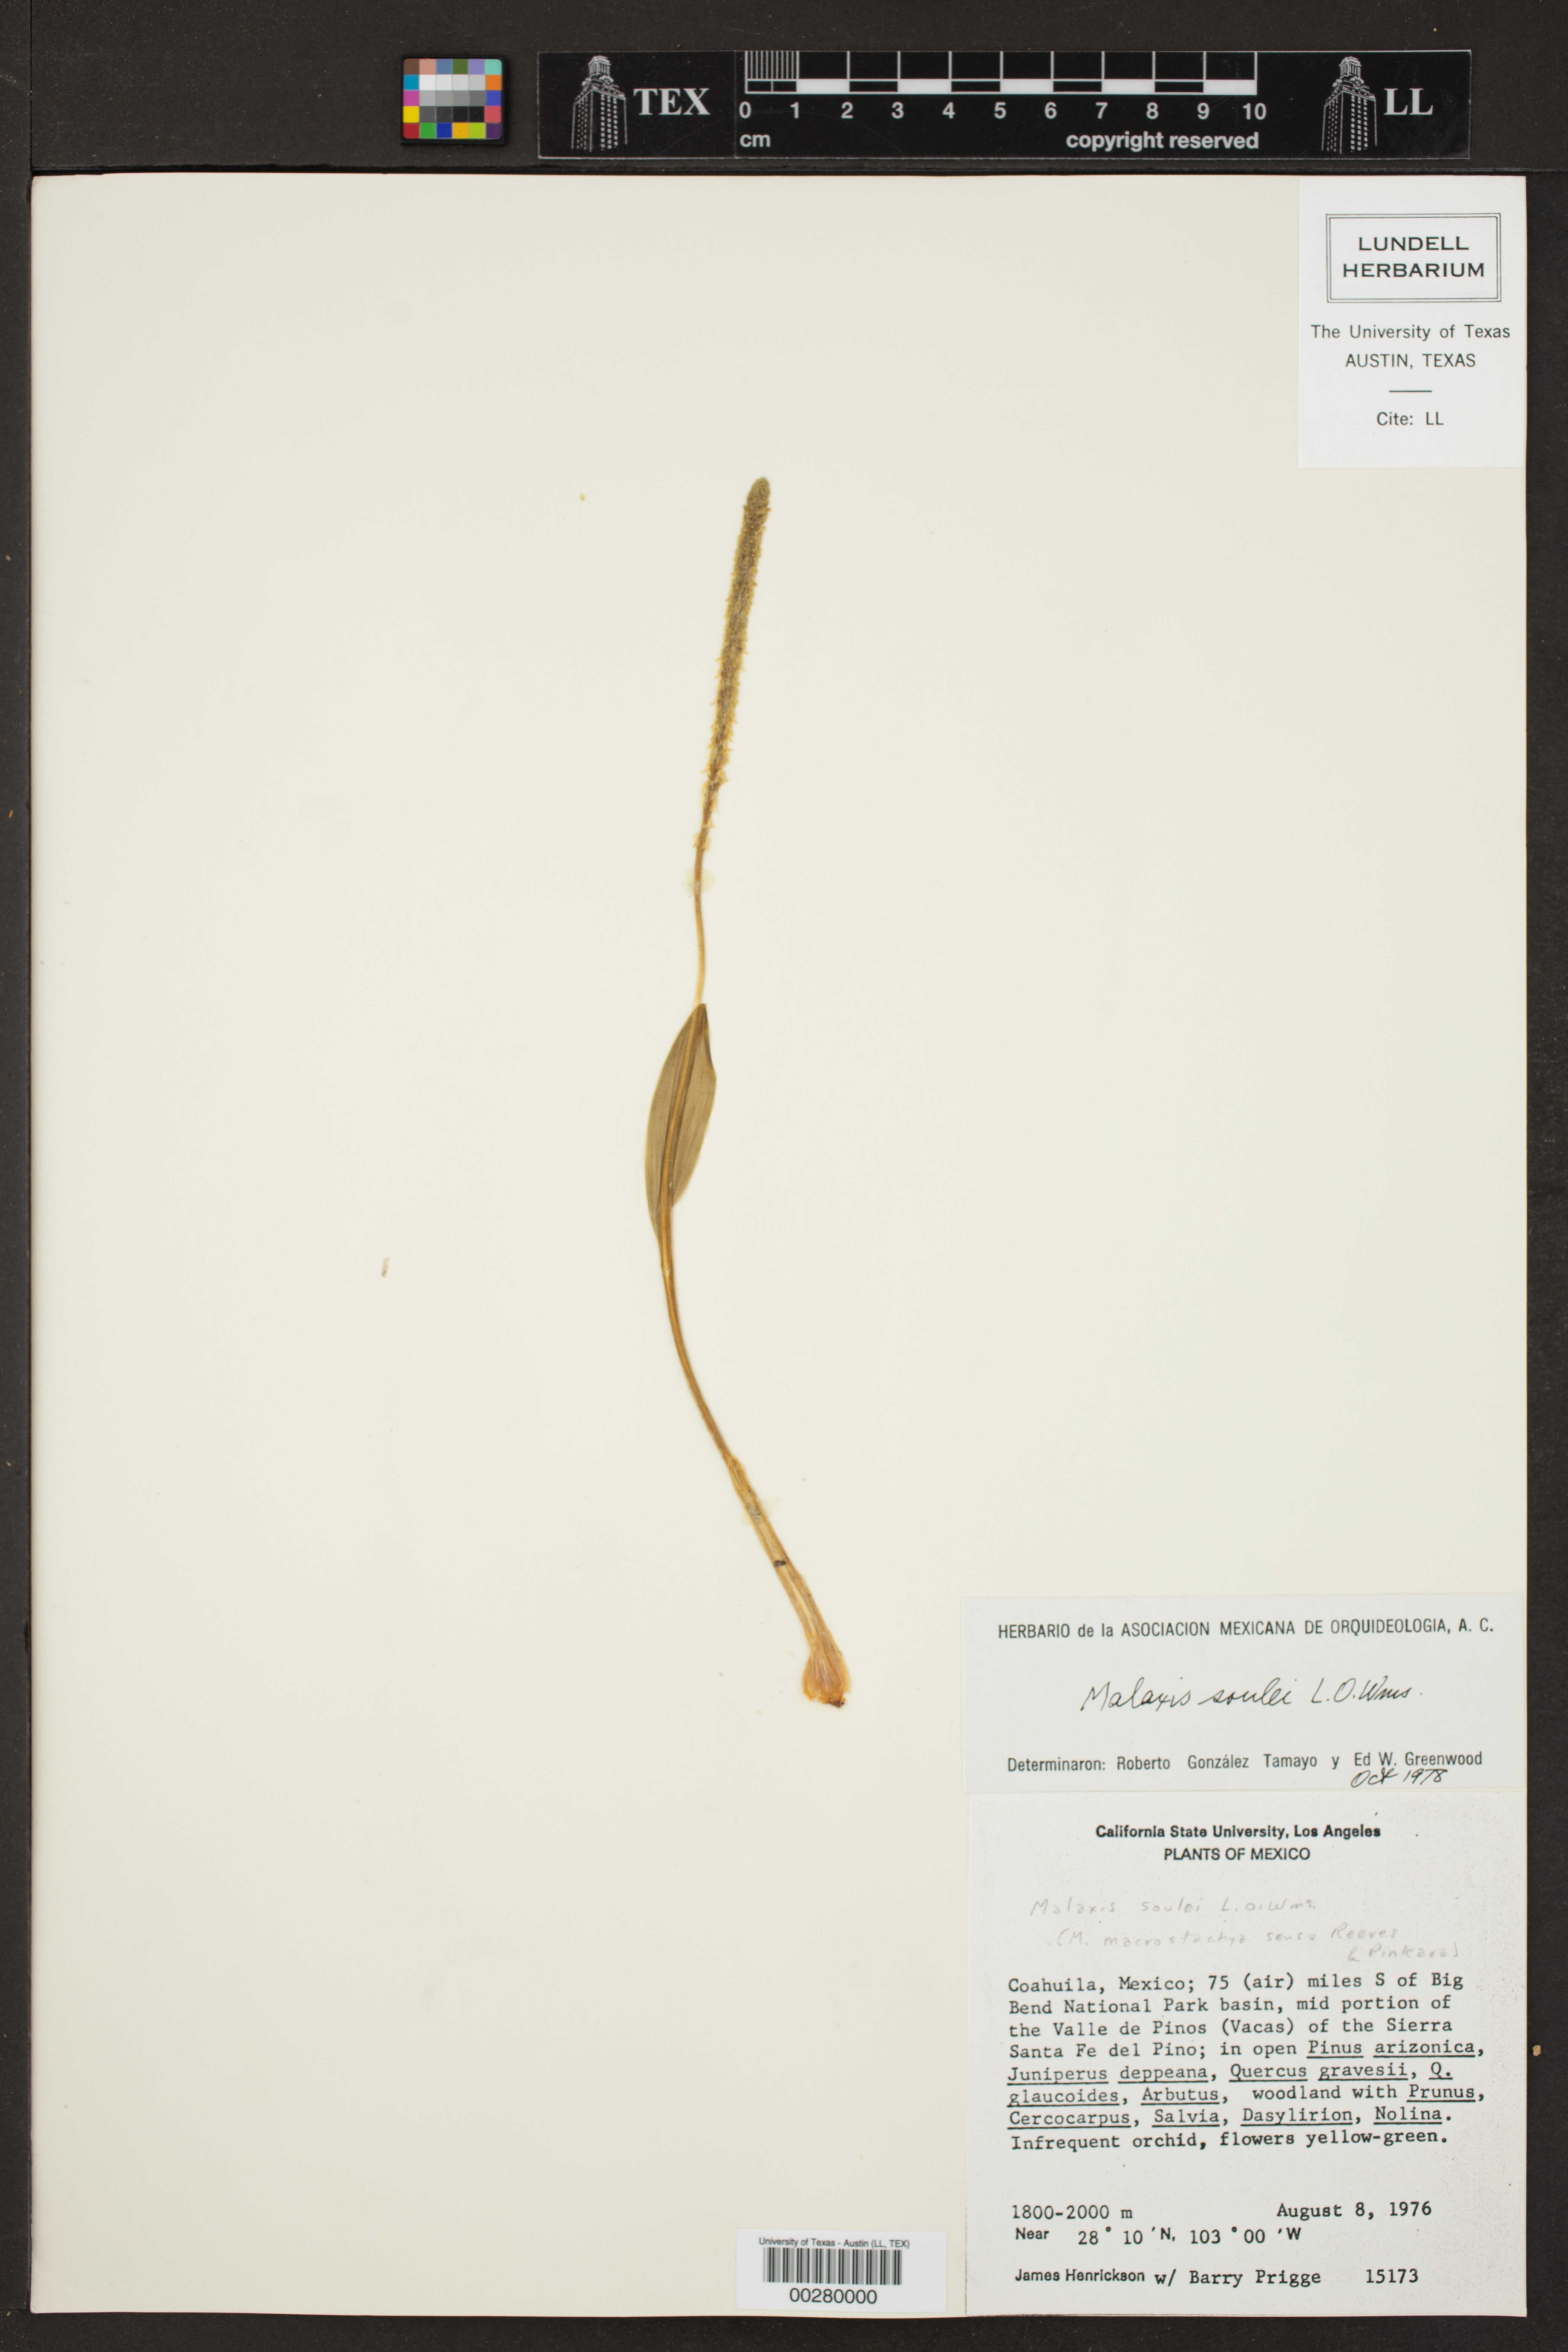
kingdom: Plantae
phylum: Tracheophyta
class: Liliopsida
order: Asparagales
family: Orchidaceae
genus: Malaxis
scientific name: Malaxis macrostachya
